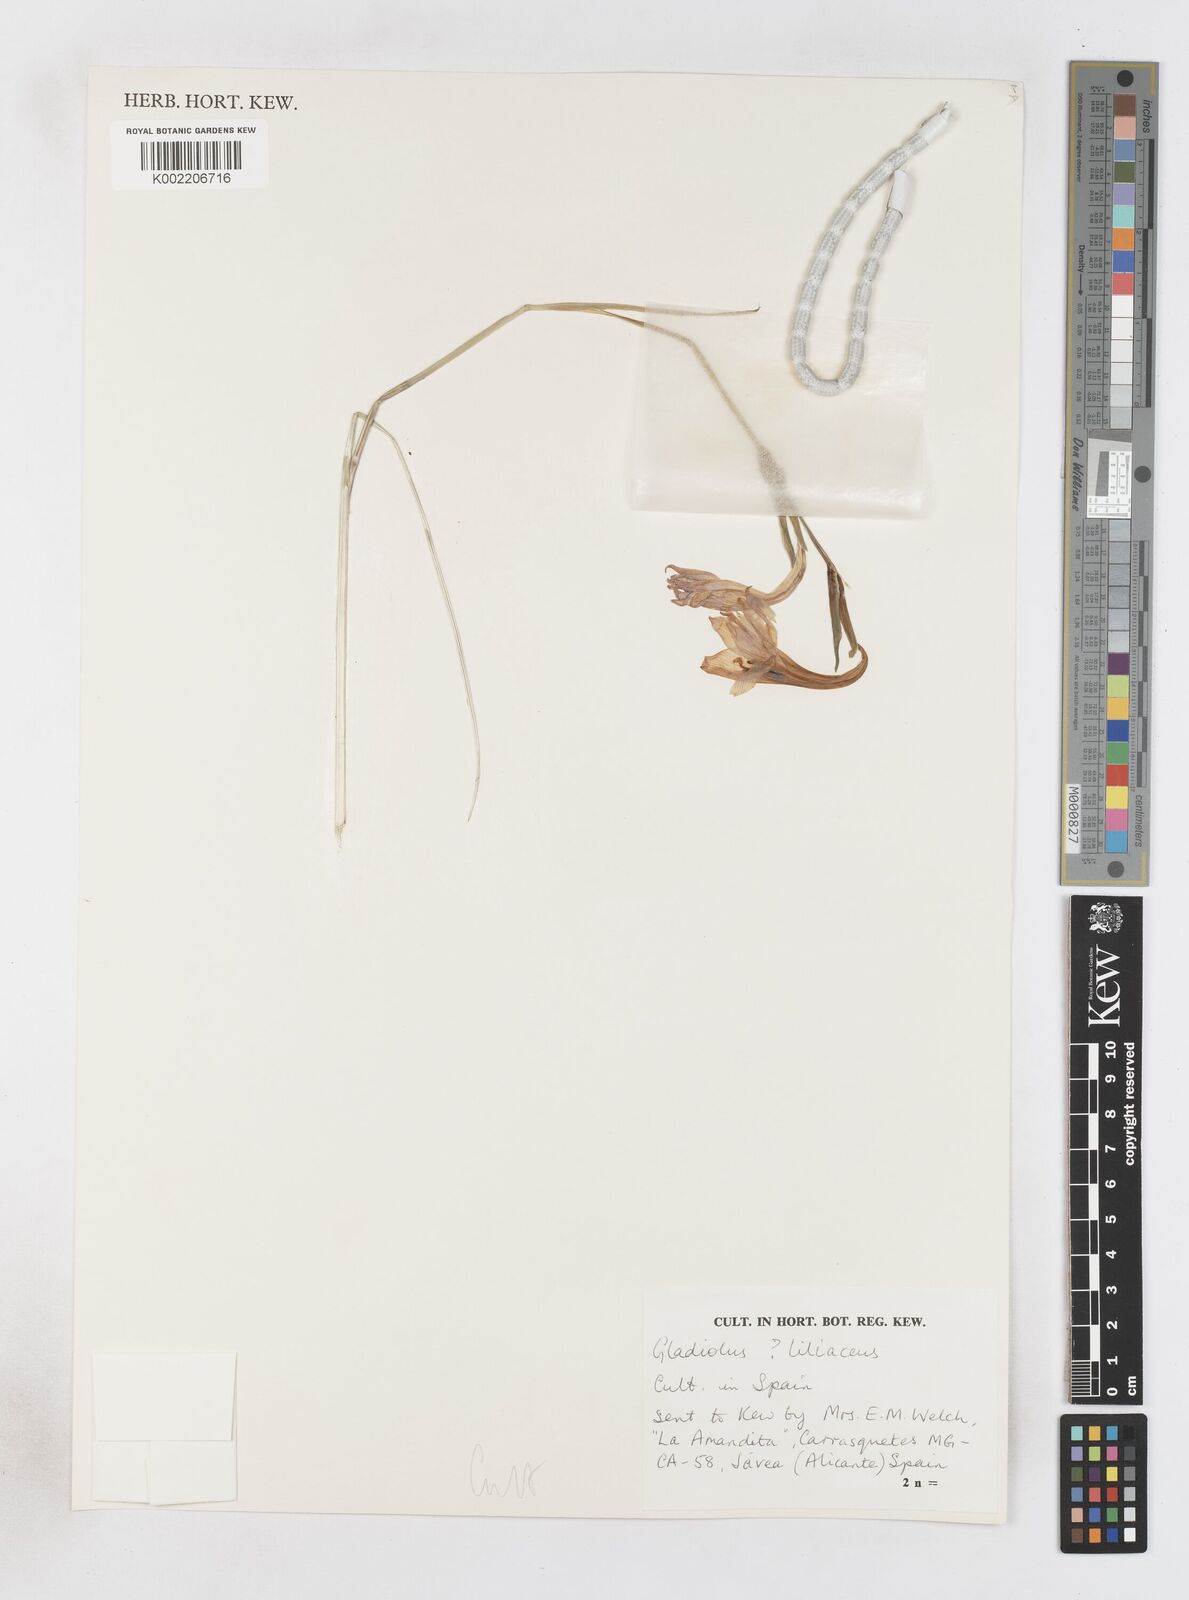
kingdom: Plantae
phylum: Tracheophyta
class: Liliopsida
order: Asparagales
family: Iridaceae
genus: Gladiolus
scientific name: Gladiolus liliaceus
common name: Large brown afrikaner
